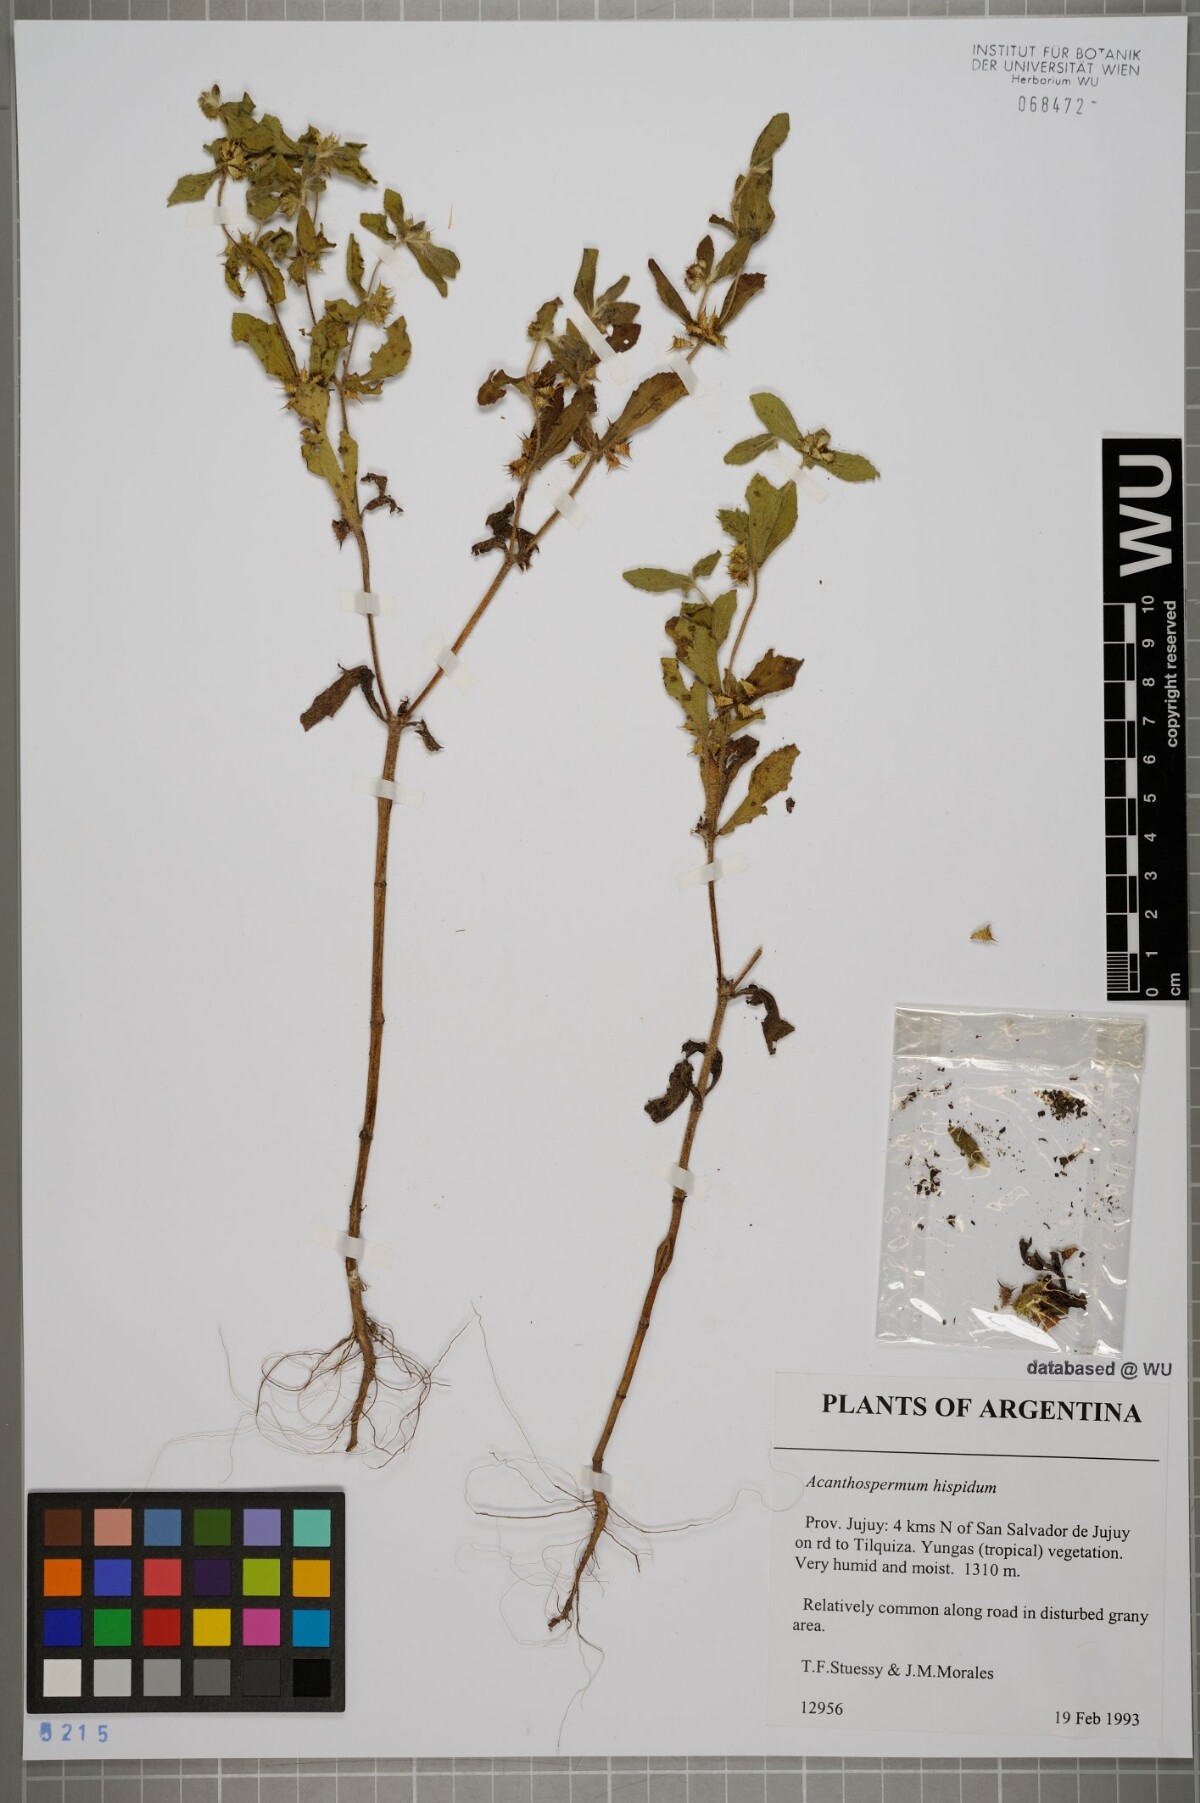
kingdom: Plantae
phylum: Tracheophyta
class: Magnoliopsida
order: Asterales
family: Asteraceae
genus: Acanthospermum
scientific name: Acanthospermum hispidum
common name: Hispid starbur
